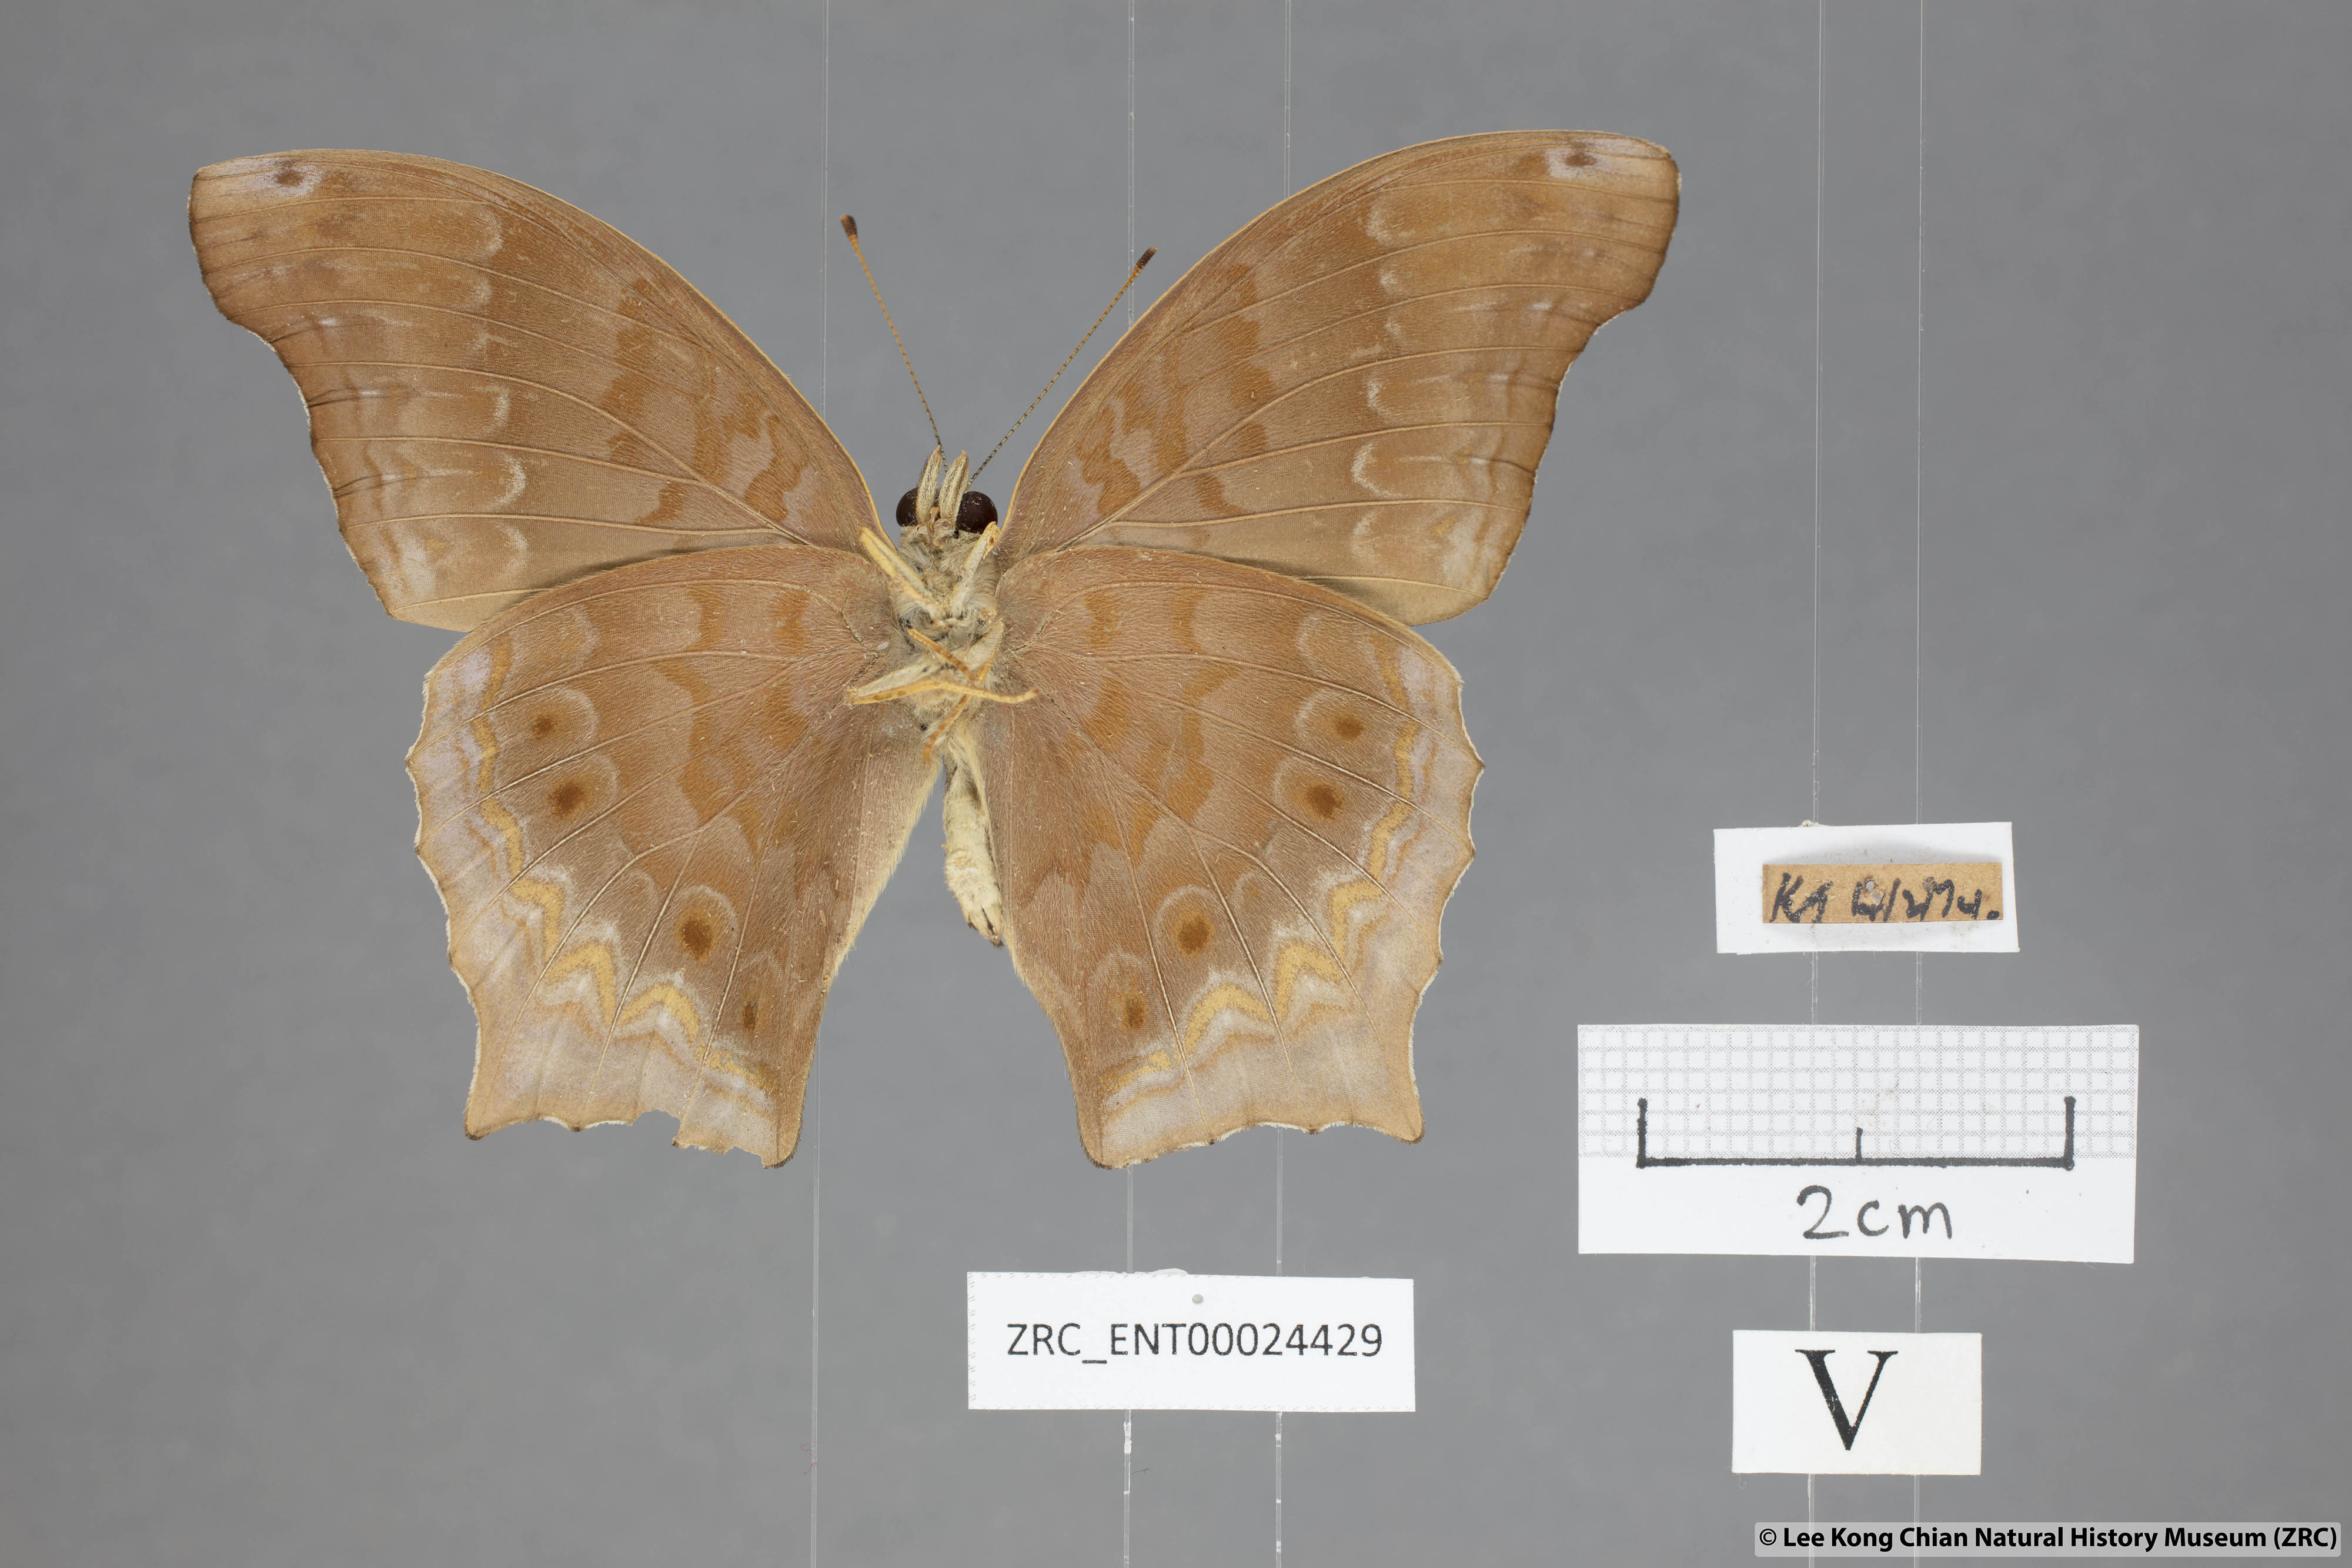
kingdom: Animalia
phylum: Arthropoda
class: Insecta
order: Lepidoptera
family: Nymphalidae
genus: Terinos
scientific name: Terinos clarissa
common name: Malayan assyrian
